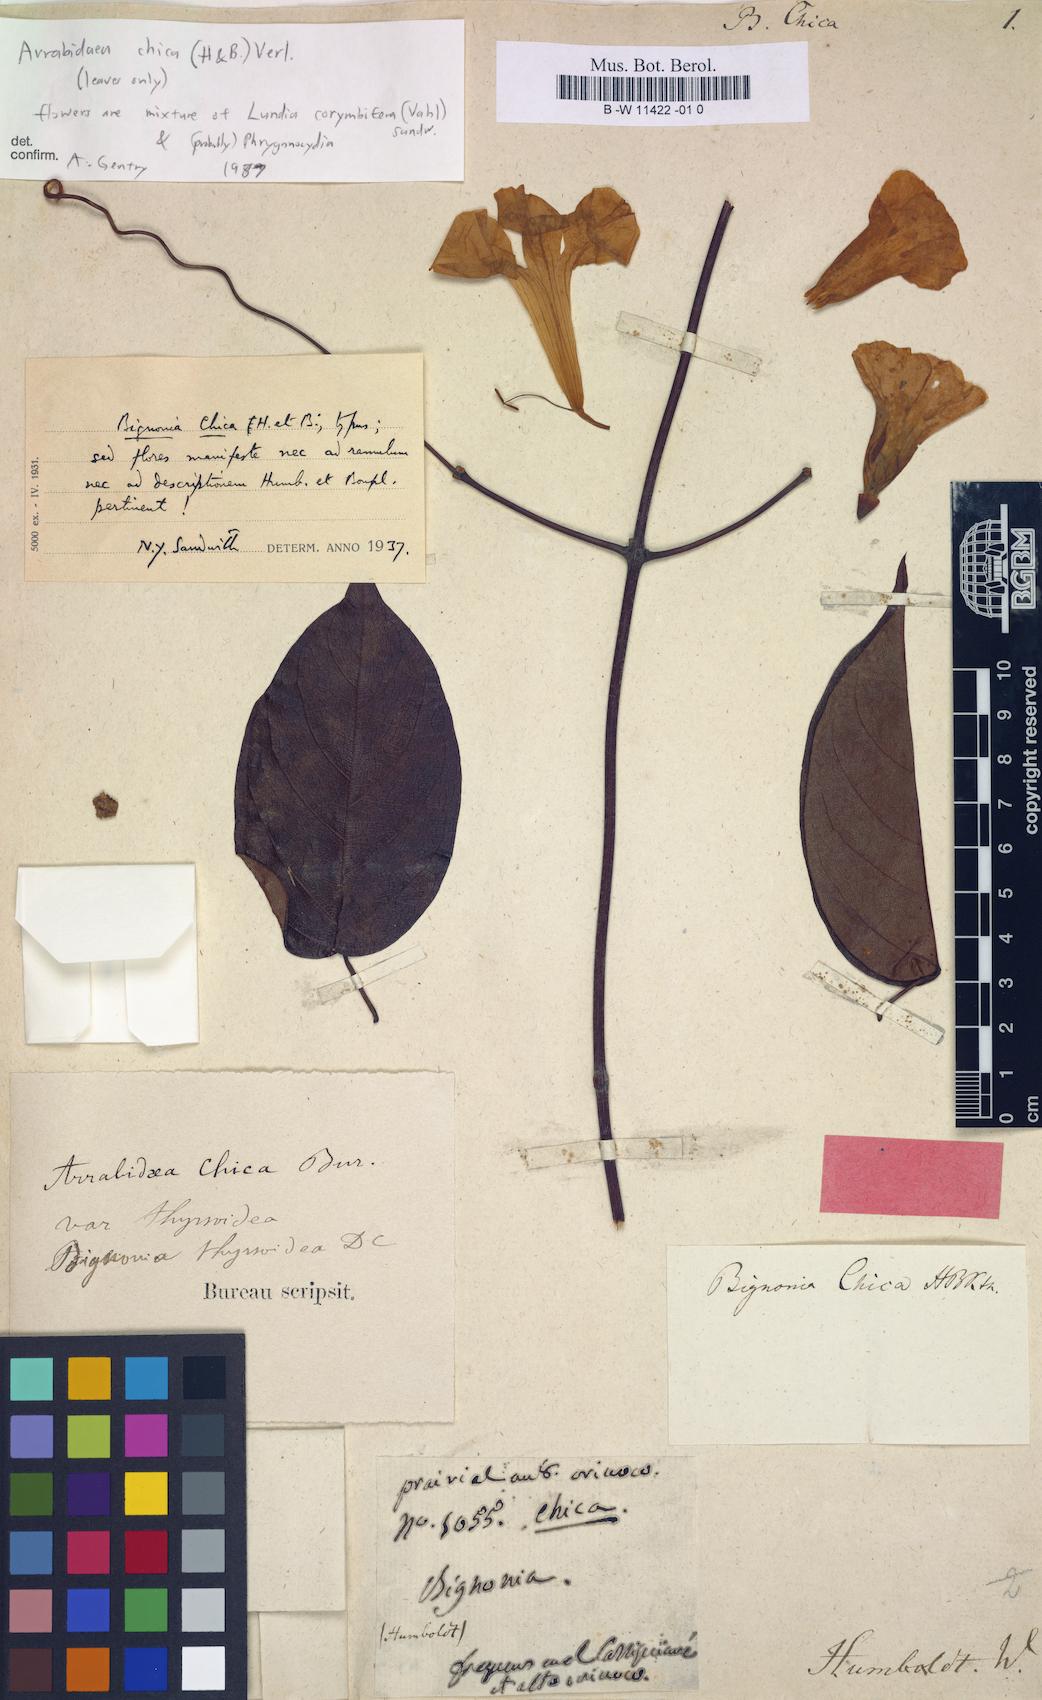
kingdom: Plantae
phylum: Tracheophyta
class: Magnoliopsida
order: Lamiales
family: Bignoniaceae
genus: Fridericia
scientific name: Fridericia chica
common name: Cricketvine
